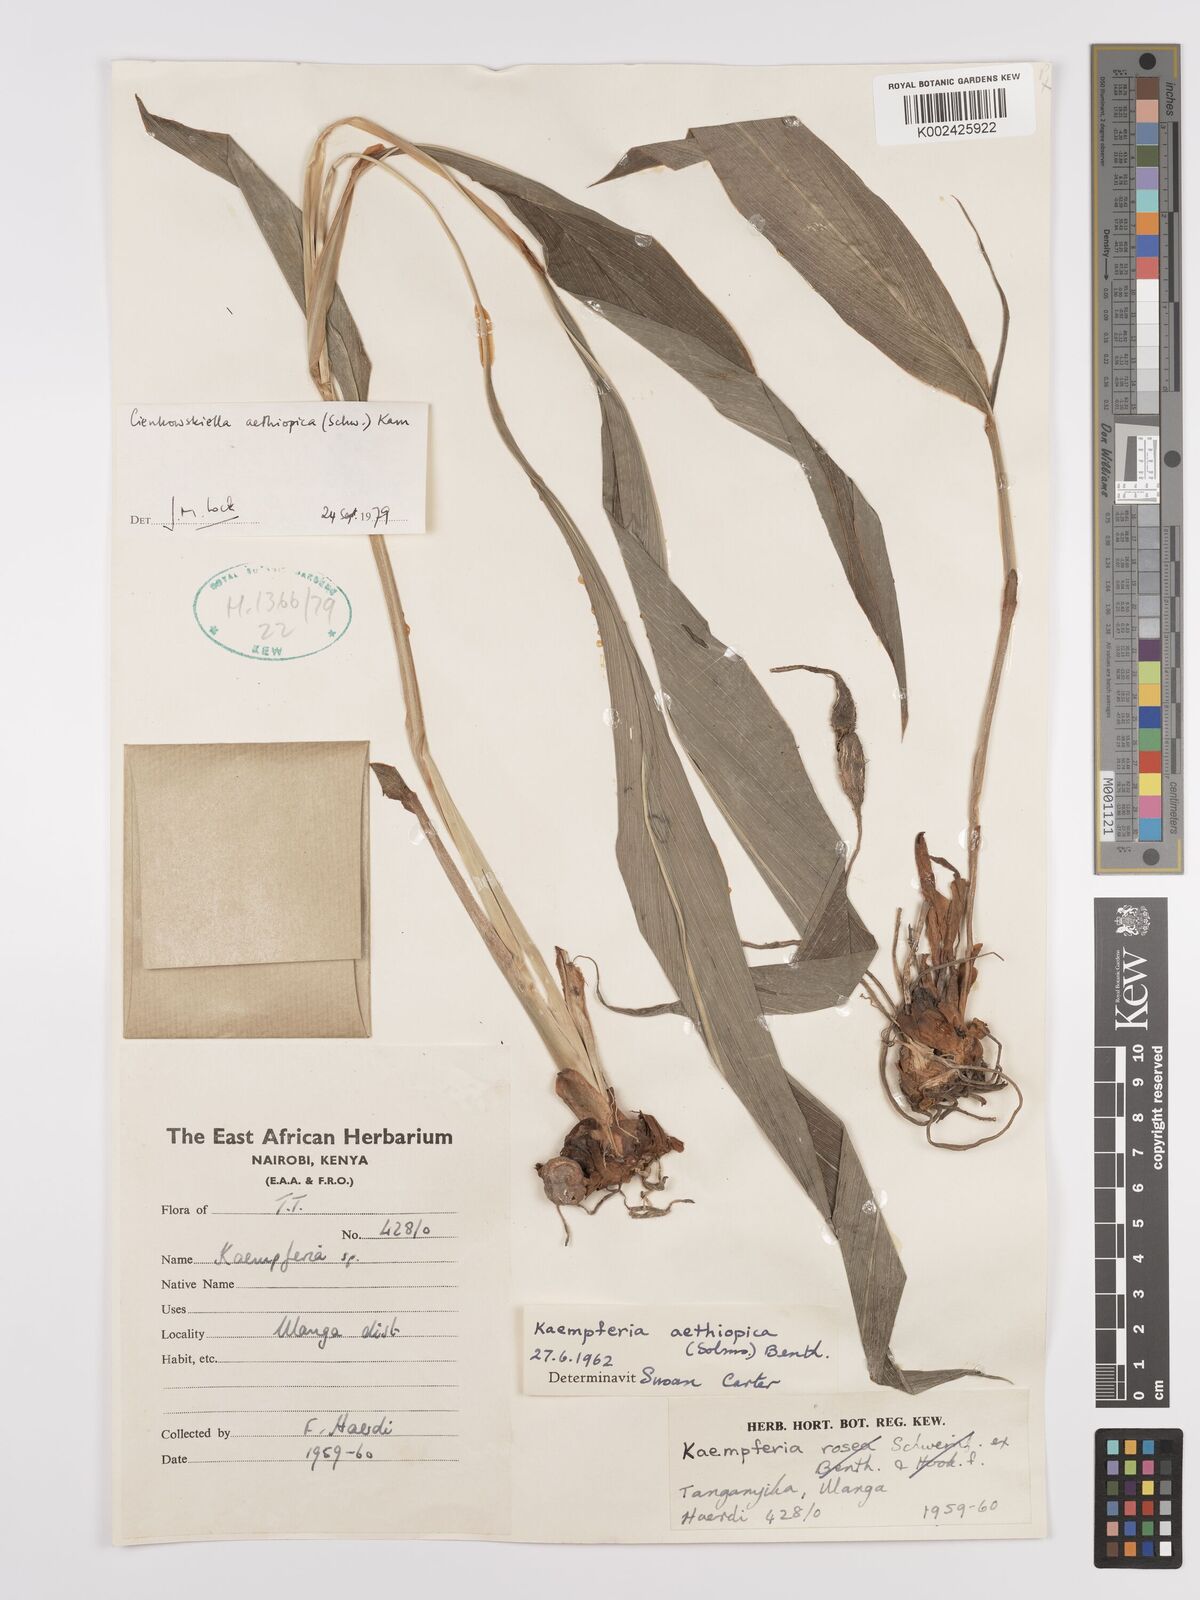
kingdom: Plantae
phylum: Tracheophyta
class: Liliopsida
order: Zingiberales
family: Zingiberaceae
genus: Siphonochilus
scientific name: Siphonochilus aethiopicus
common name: African-ginger
